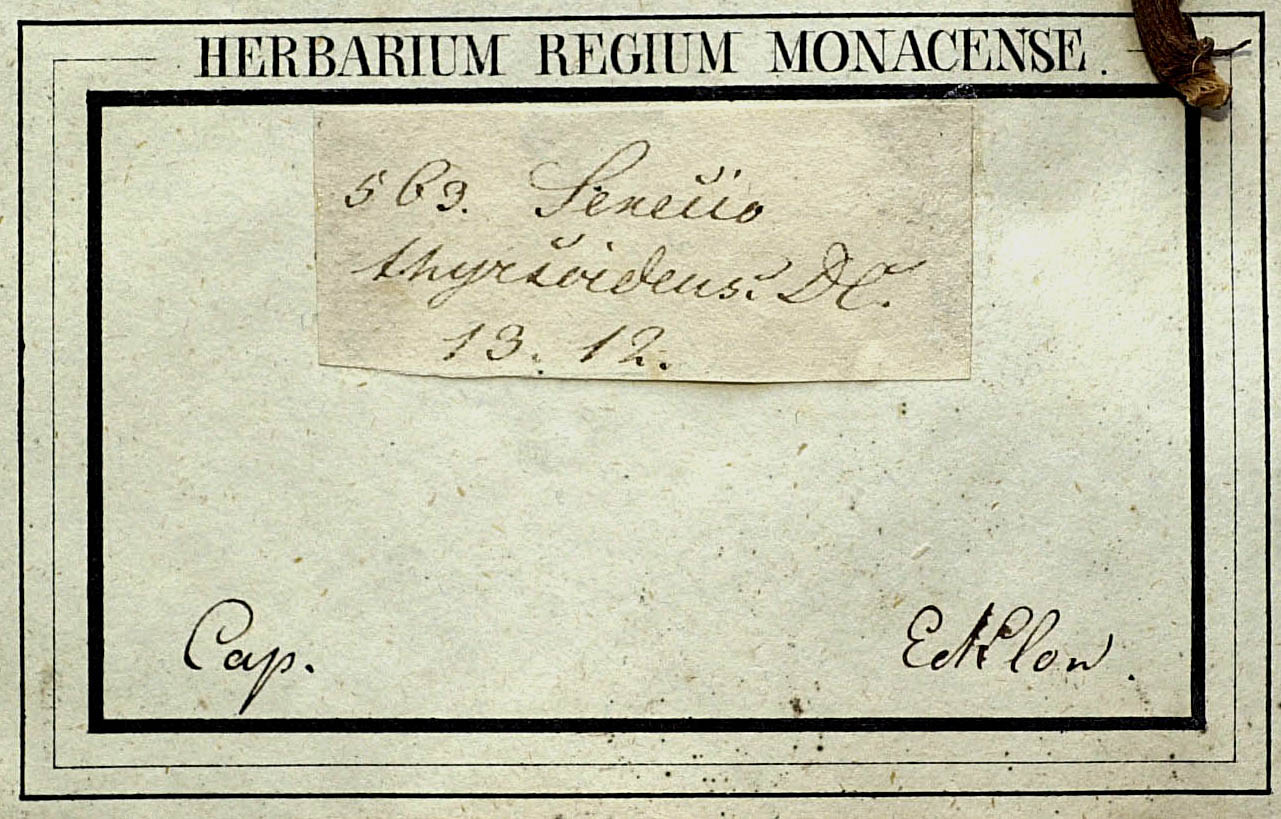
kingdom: Plantae
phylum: Tracheophyta
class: Magnoliopsida
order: Asterales
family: Asteraceae
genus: Senecio
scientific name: Senecio barbatus
